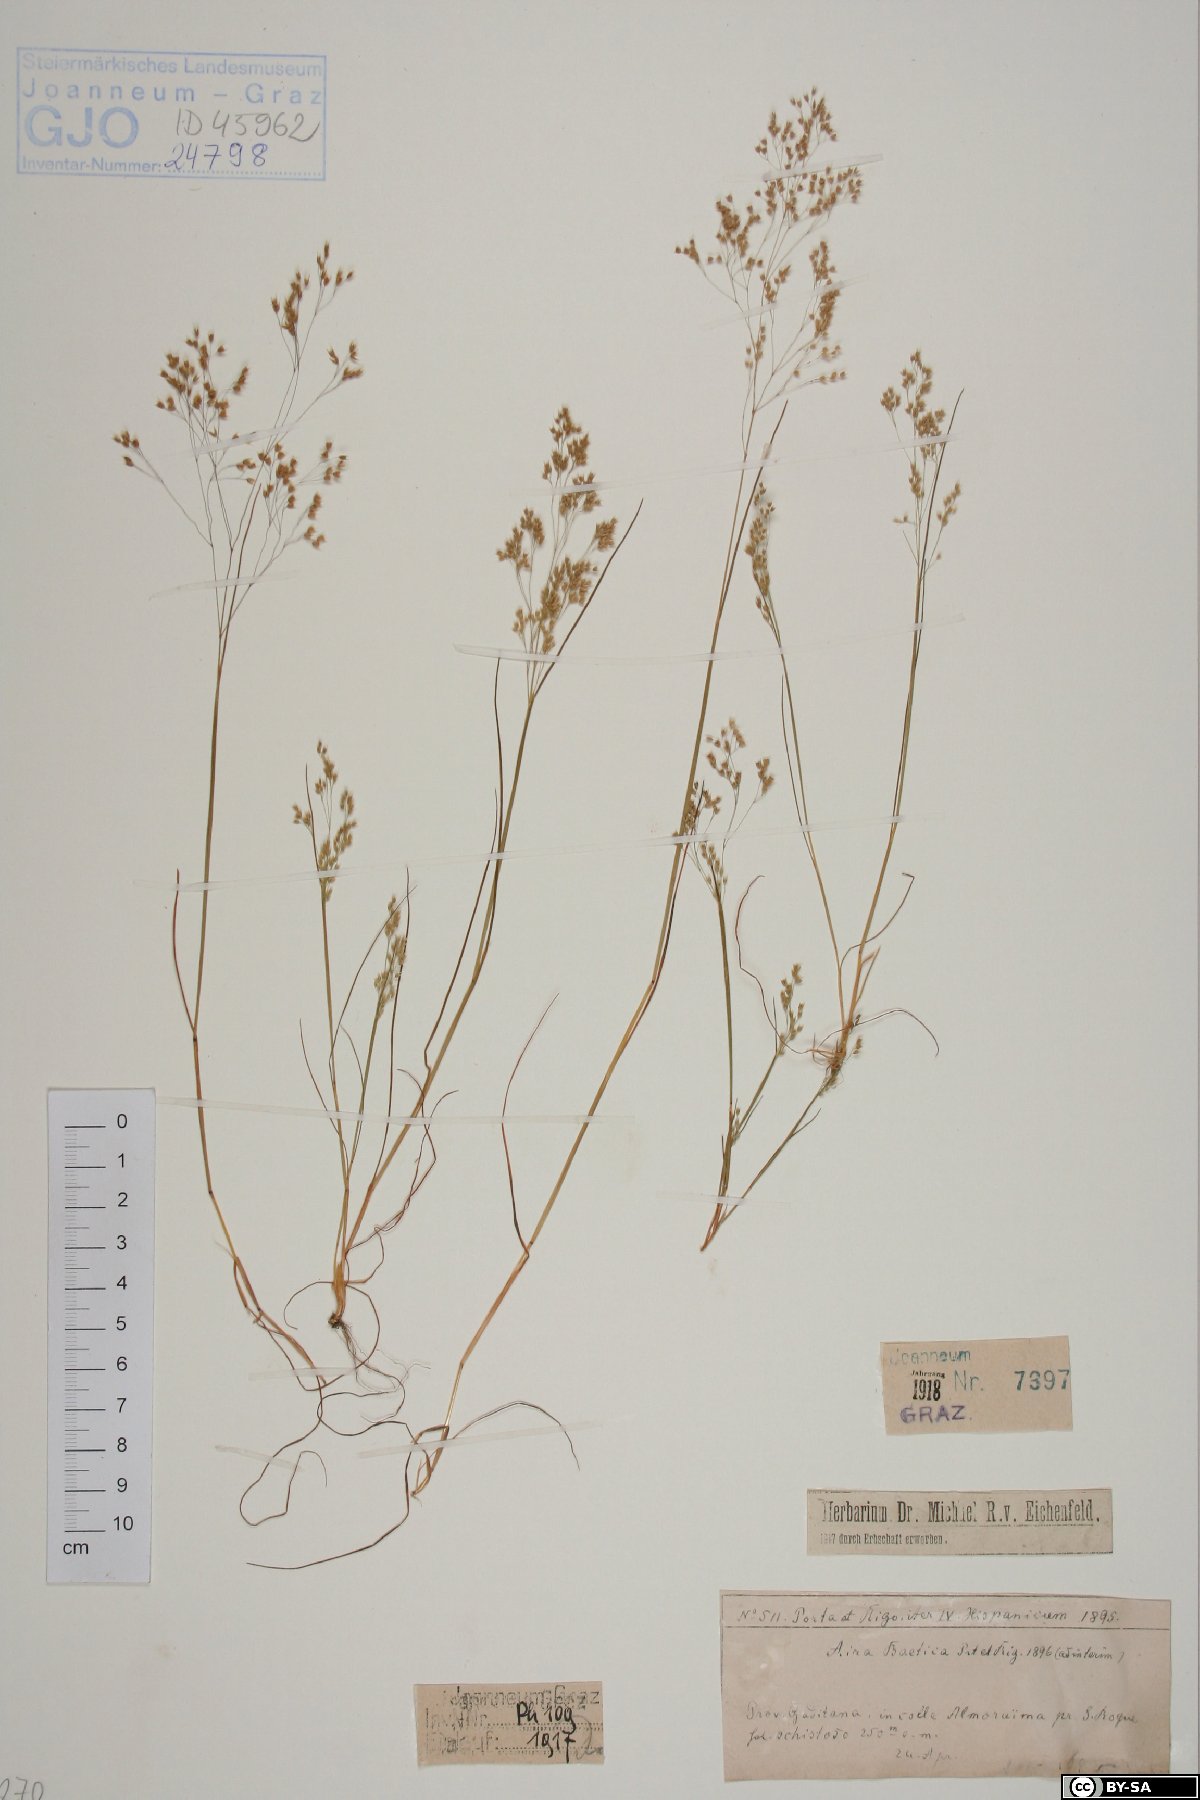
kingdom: Plantae
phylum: Tracheophyta
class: Liliopsida
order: Poales
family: Poaceae
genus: Aira
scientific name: Aira caryophyllea
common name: Silver hairgrass
